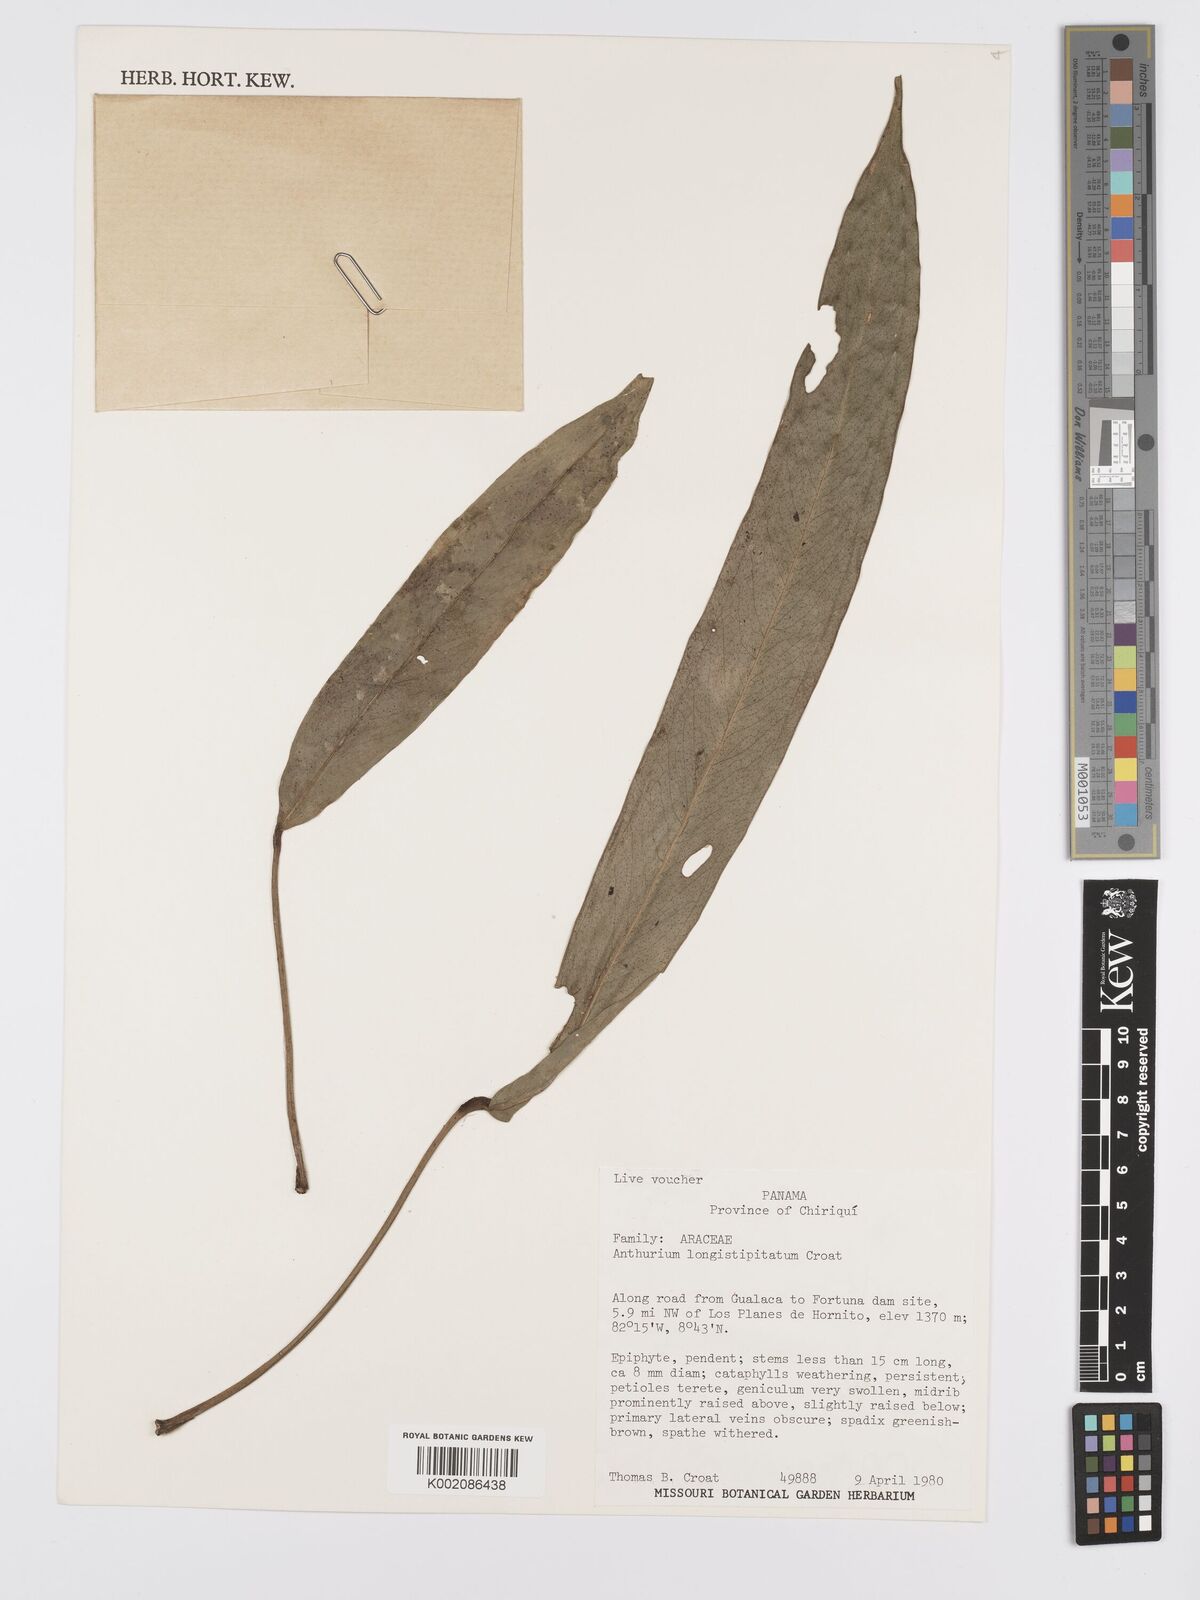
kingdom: Plantae
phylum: Tracheophyta
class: Liliopsida
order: Alismatales
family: Araceae
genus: Anthurium
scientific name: Anthurium longistipitatum
